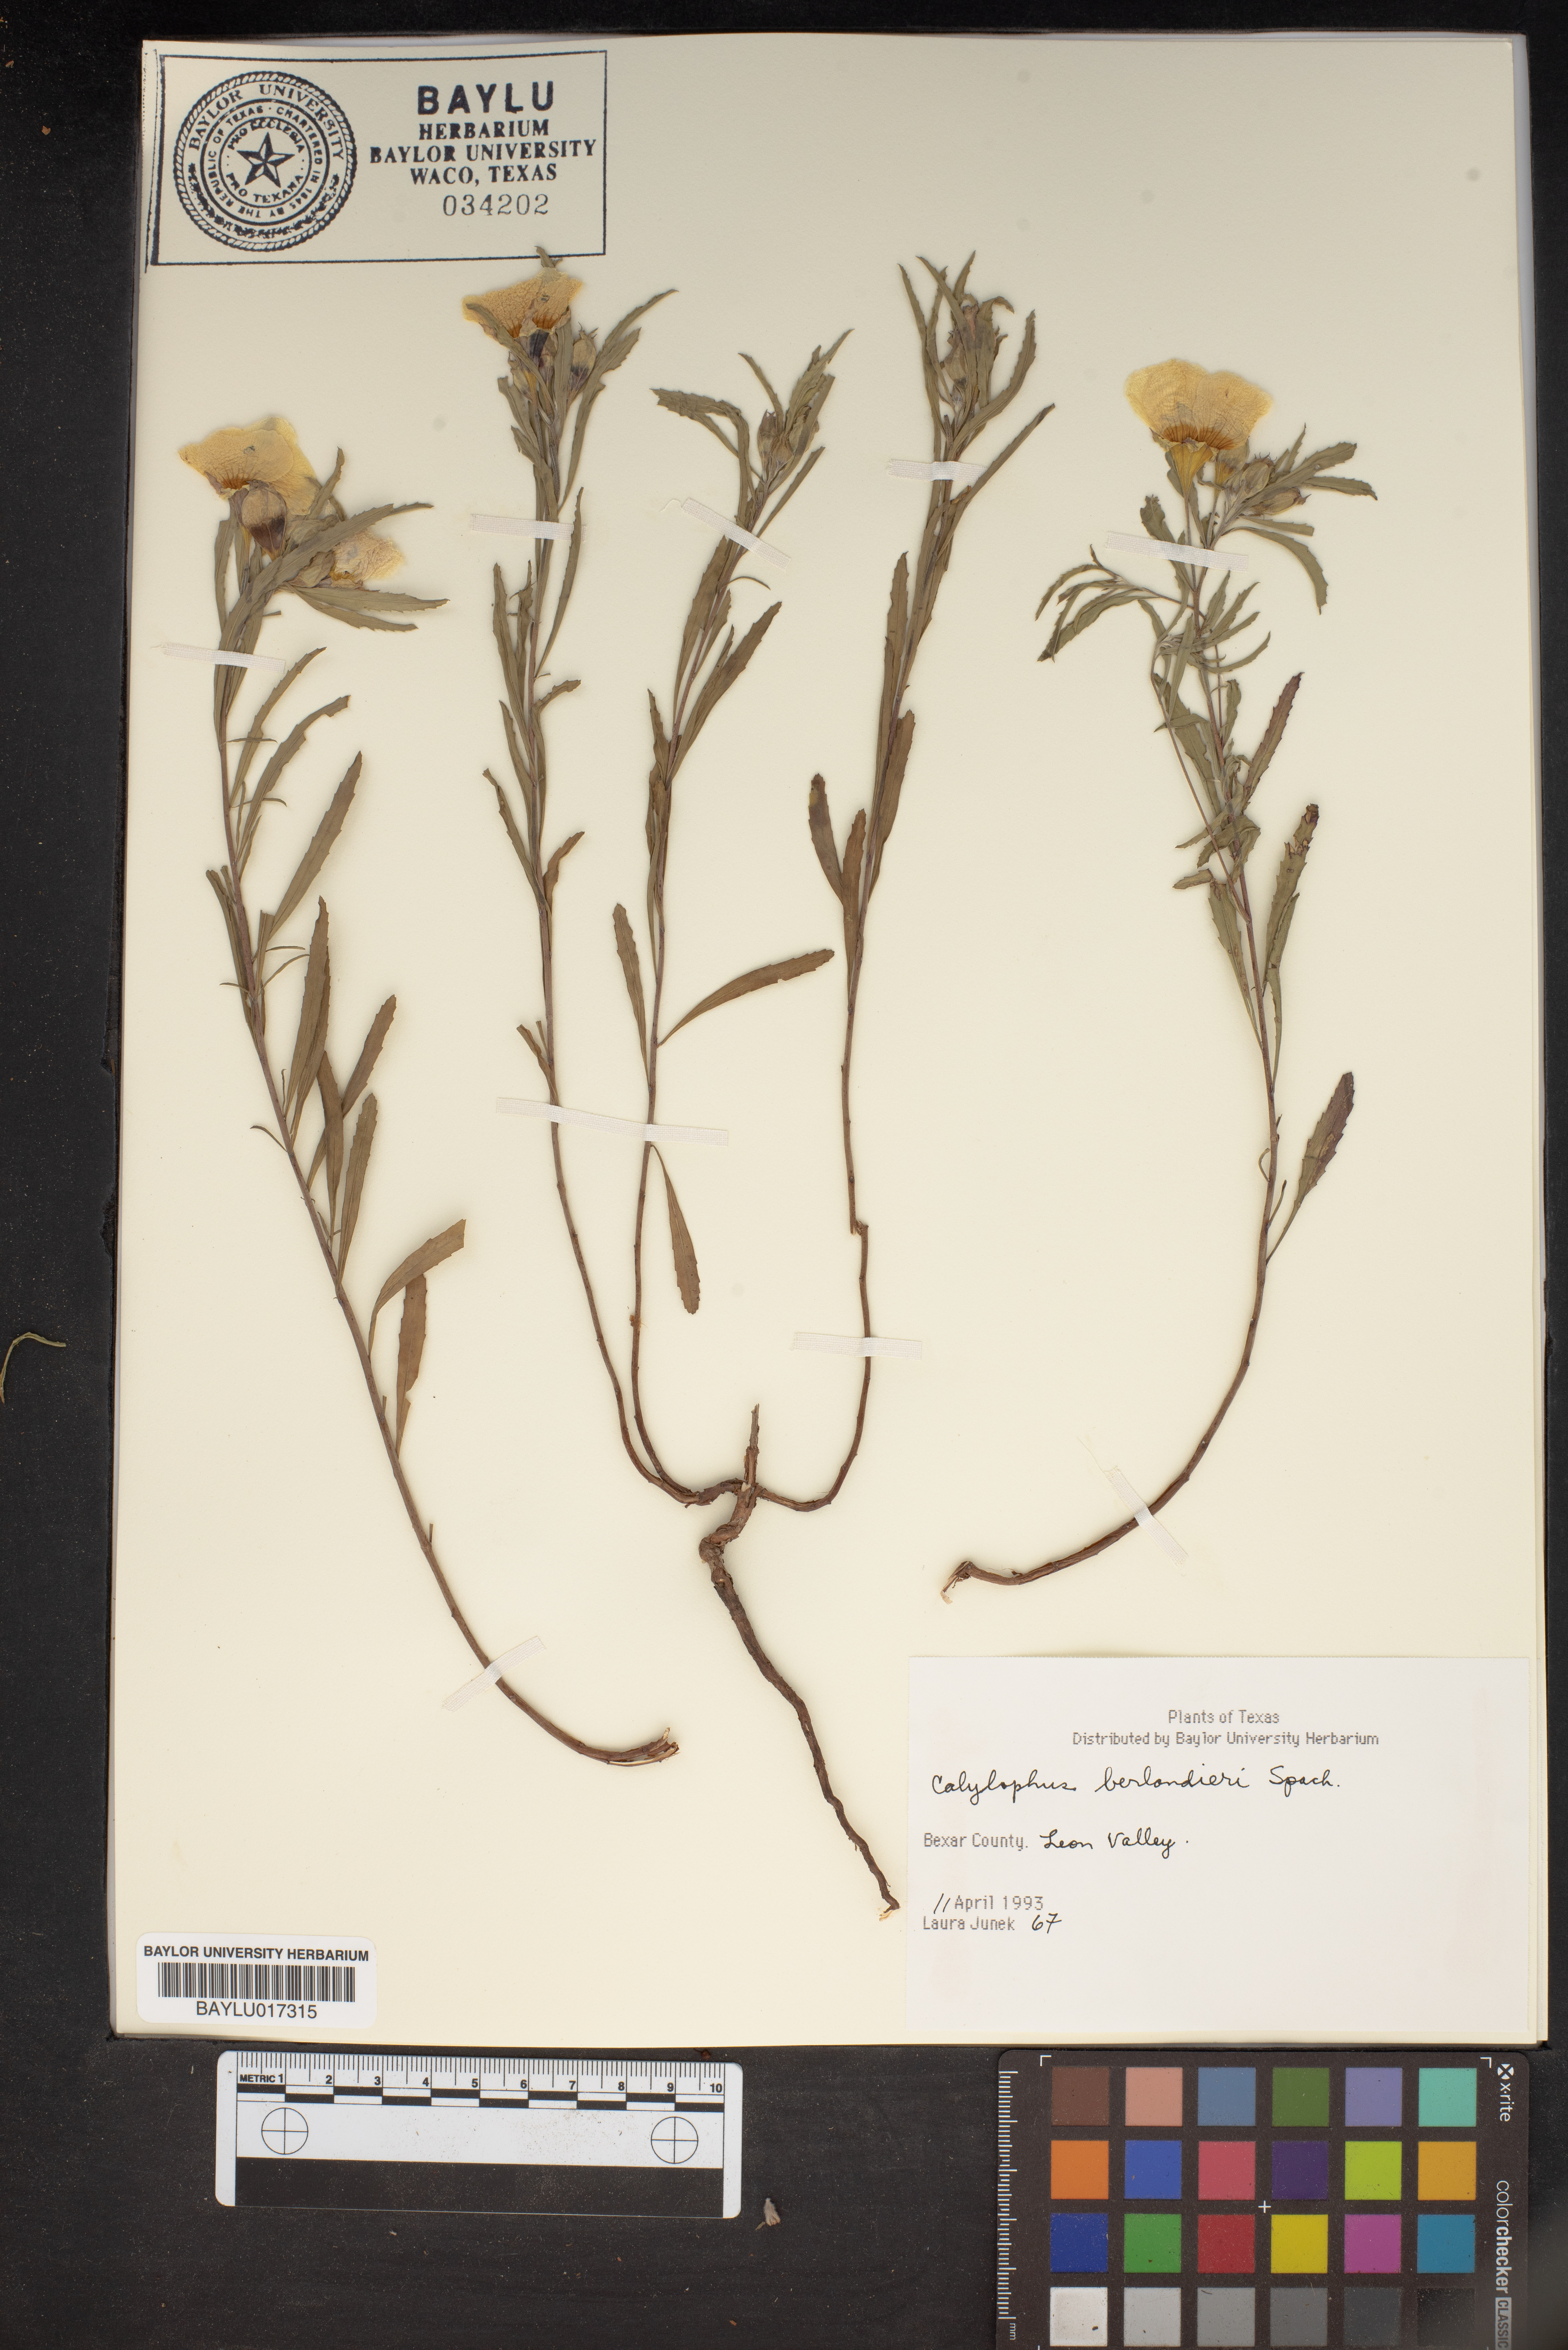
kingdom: Plantae
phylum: Tracheophyta
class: Magnoliopsida
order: Myrtales
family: Onagraceae
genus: Oenothera
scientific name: Oenothera capillifolia
